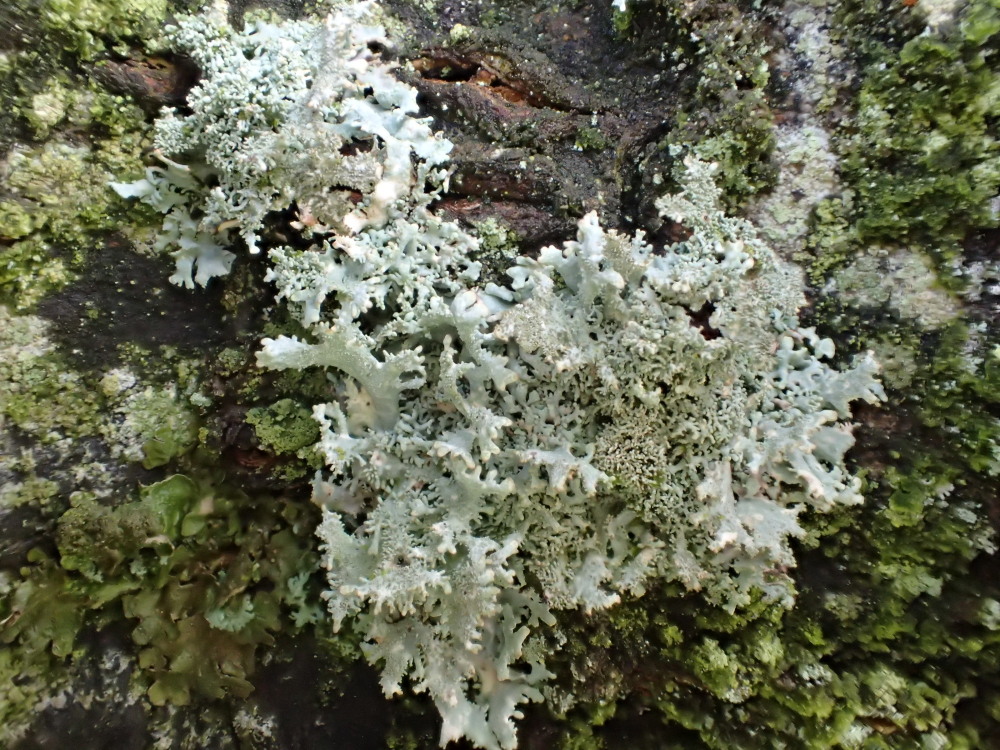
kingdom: Fungi
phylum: Ascomycota
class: Lecanoromycetes
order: Lecanorales
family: Parmeliaceae
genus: Pseudevernia
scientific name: Pseudevernia furfuracea
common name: grå fyrrelav
